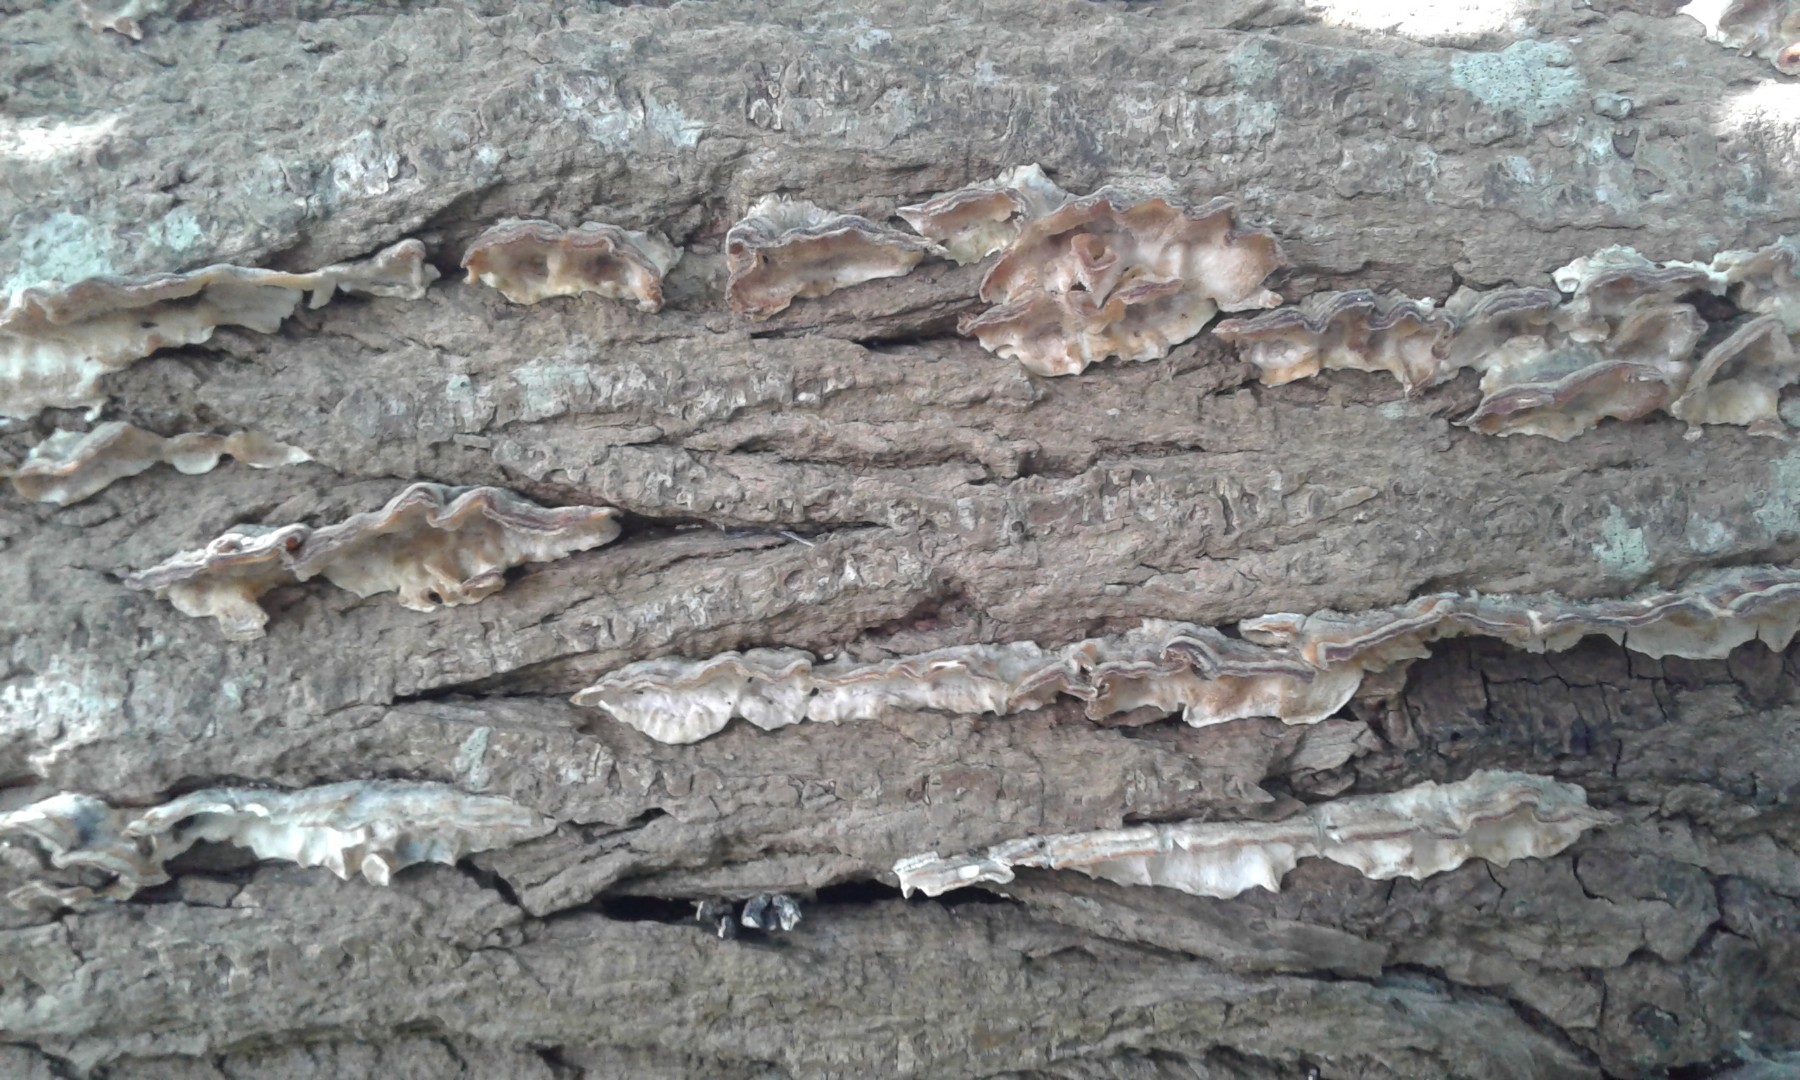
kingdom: Fungi
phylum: Basidiomycota
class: Agaricomycetes
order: Polyporales
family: Polyporaceae
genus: Trametes
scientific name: Trametes versicolor
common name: broget læderporesvamp
